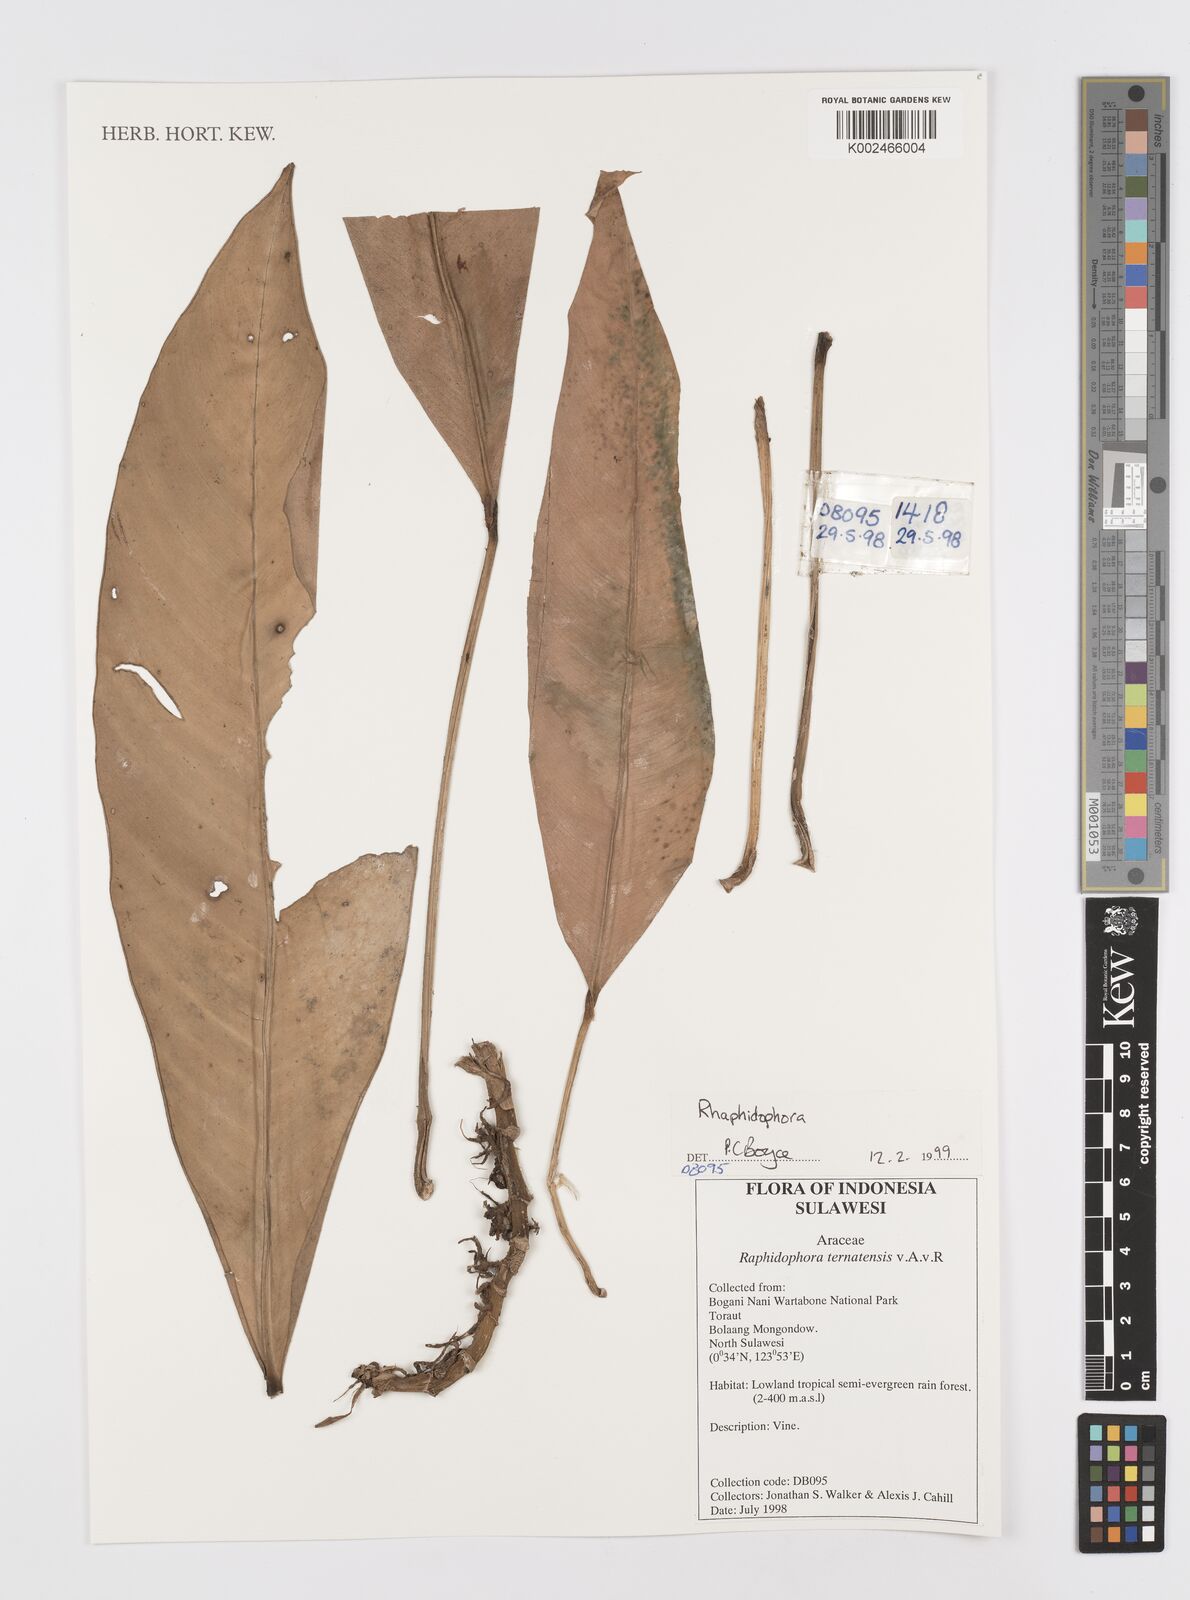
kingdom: Plantae
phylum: Tracheophyta
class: Liliopsida
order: Alismatales
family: Araceae
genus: Rhaphidophora
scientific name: Rhaphidophora
